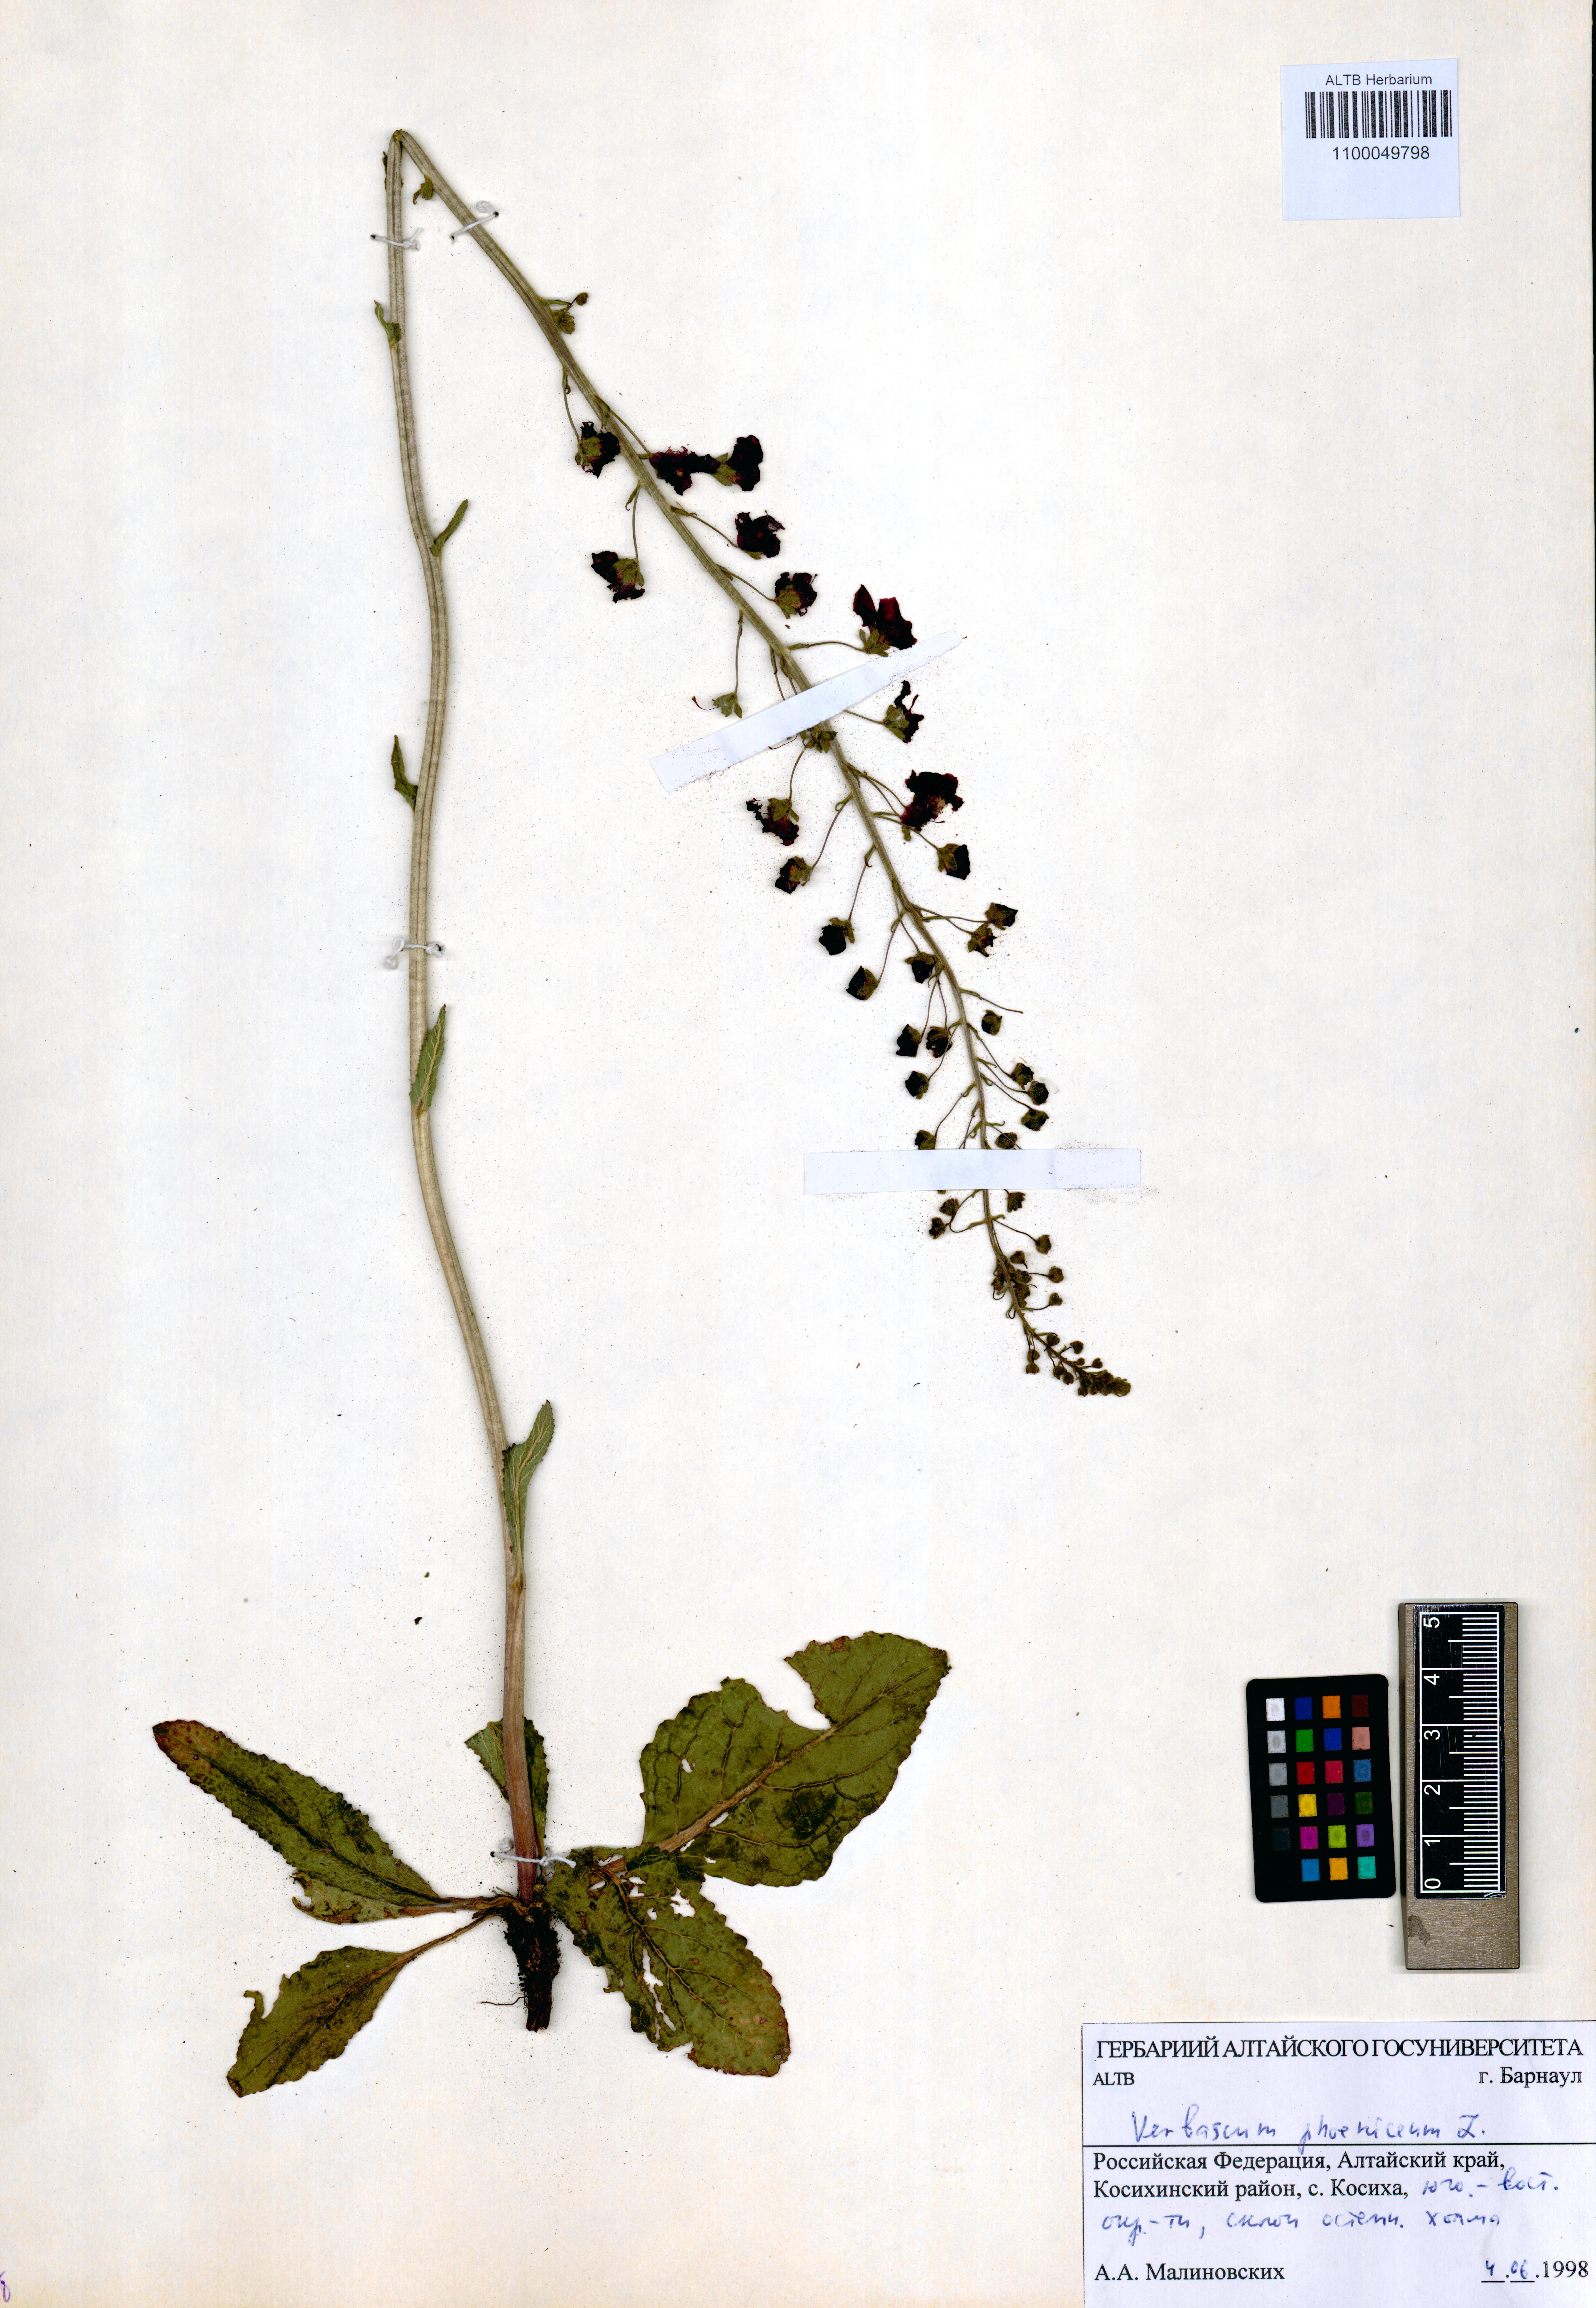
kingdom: Plantae
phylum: Tracheophyta
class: Magnoliopsida
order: Lamiales
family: Scrophulariaceae
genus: Verbascum
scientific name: Verbascum phoeniceum
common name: Purple mullein
